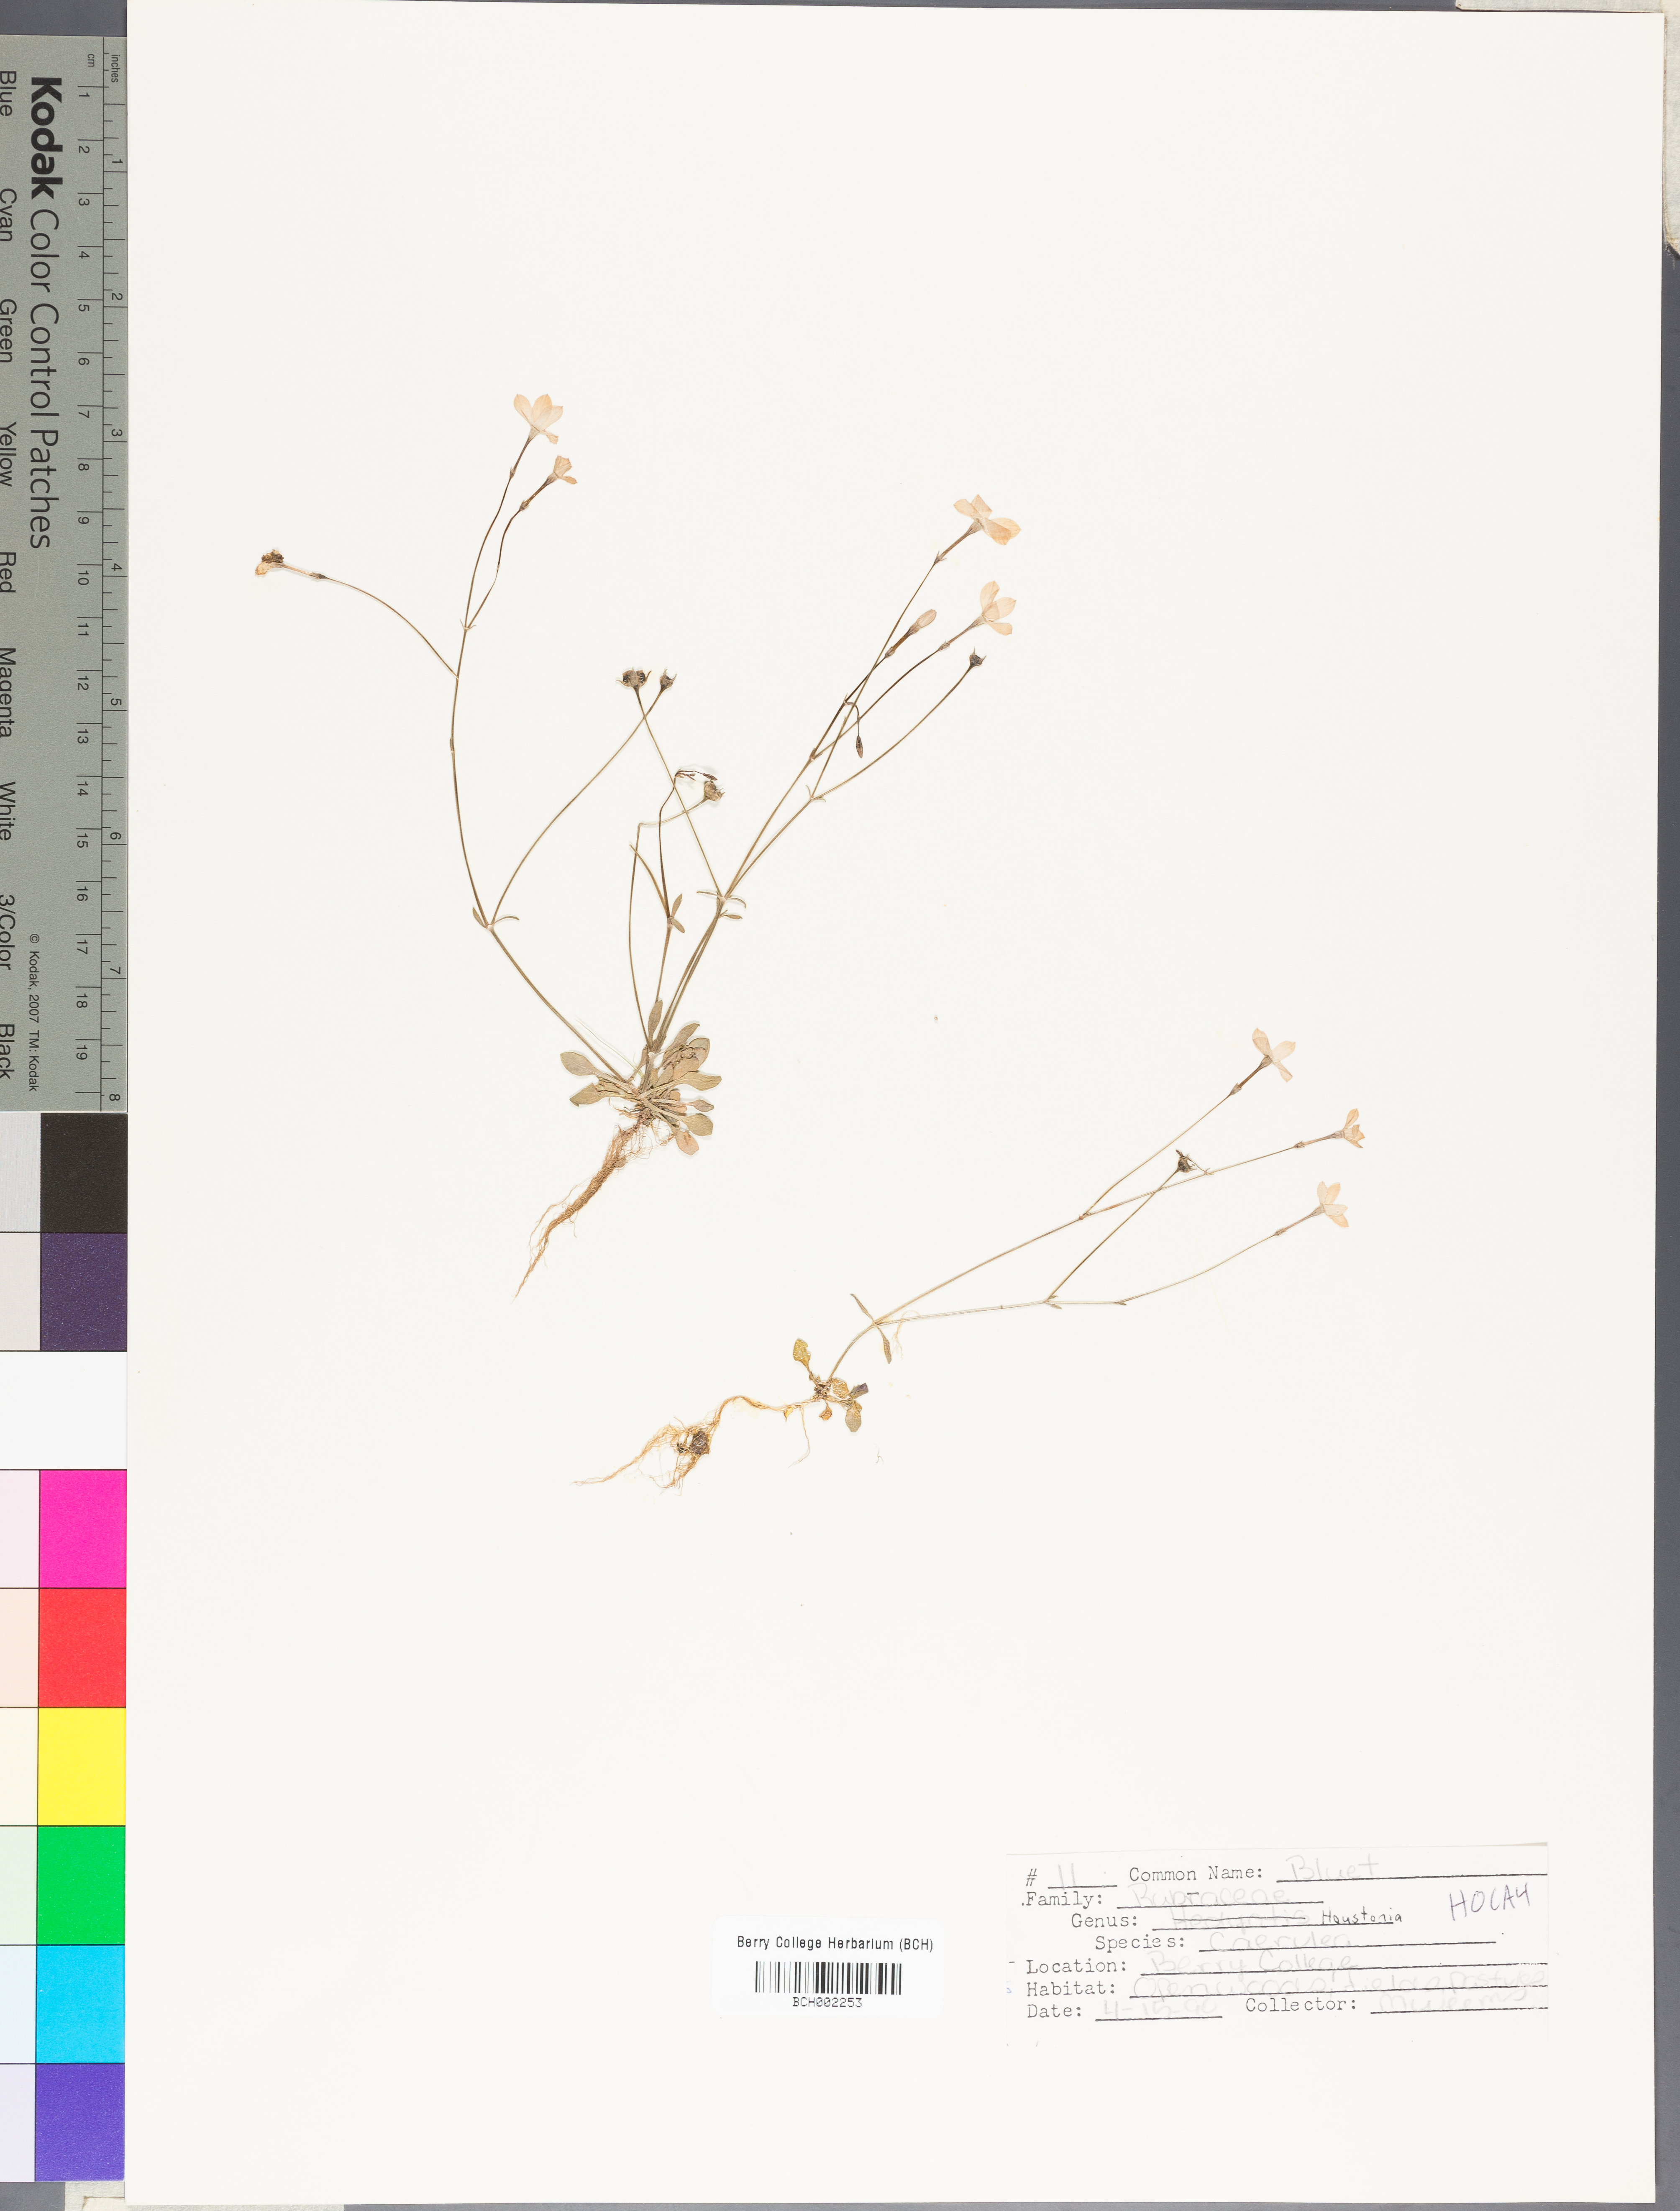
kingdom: Plantae
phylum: Tracheophyta
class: Magnoliopsida
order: Gentianales
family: Rubiaceae
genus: Houstonia
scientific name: Houstonia caerulea
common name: Bluets
